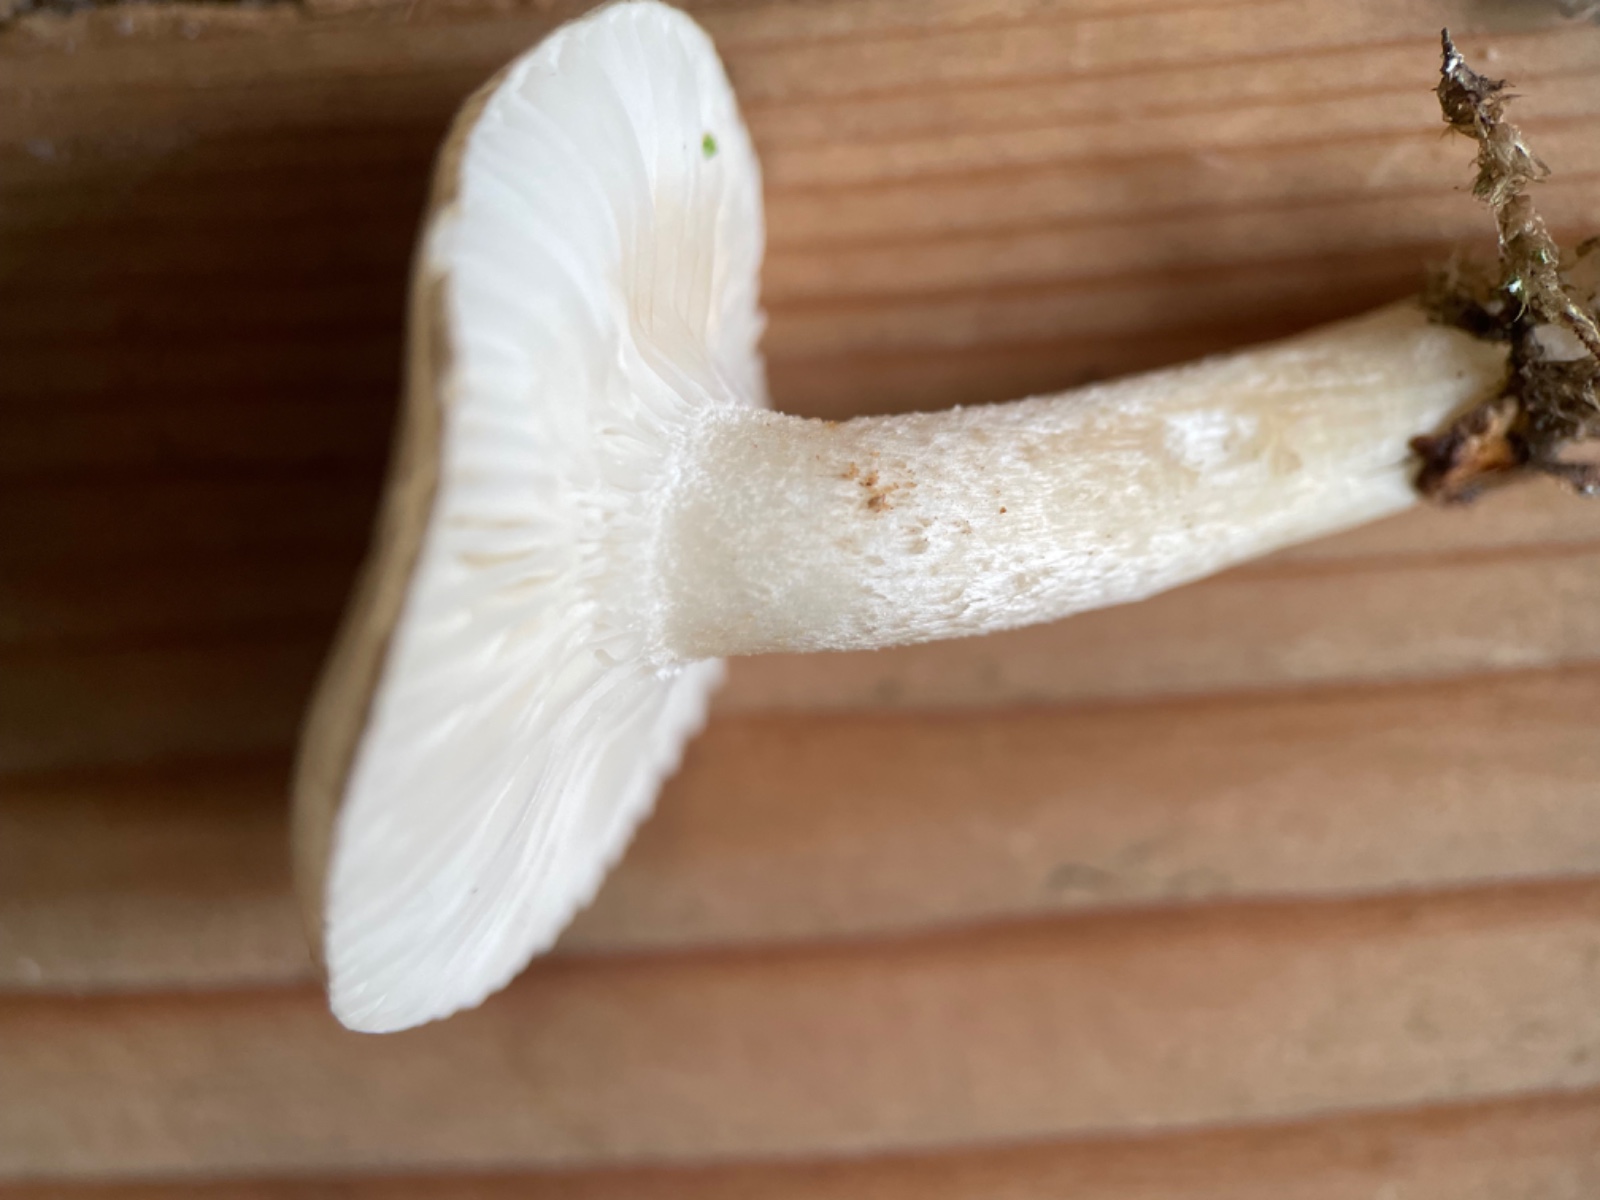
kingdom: Fungi
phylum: Basidiomycota
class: Agaricomycetes
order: Agaricales
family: Hygrophoraceae
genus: Hygrophorus
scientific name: Hygrophorus agathosmus
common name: vellugtende sneglehat
